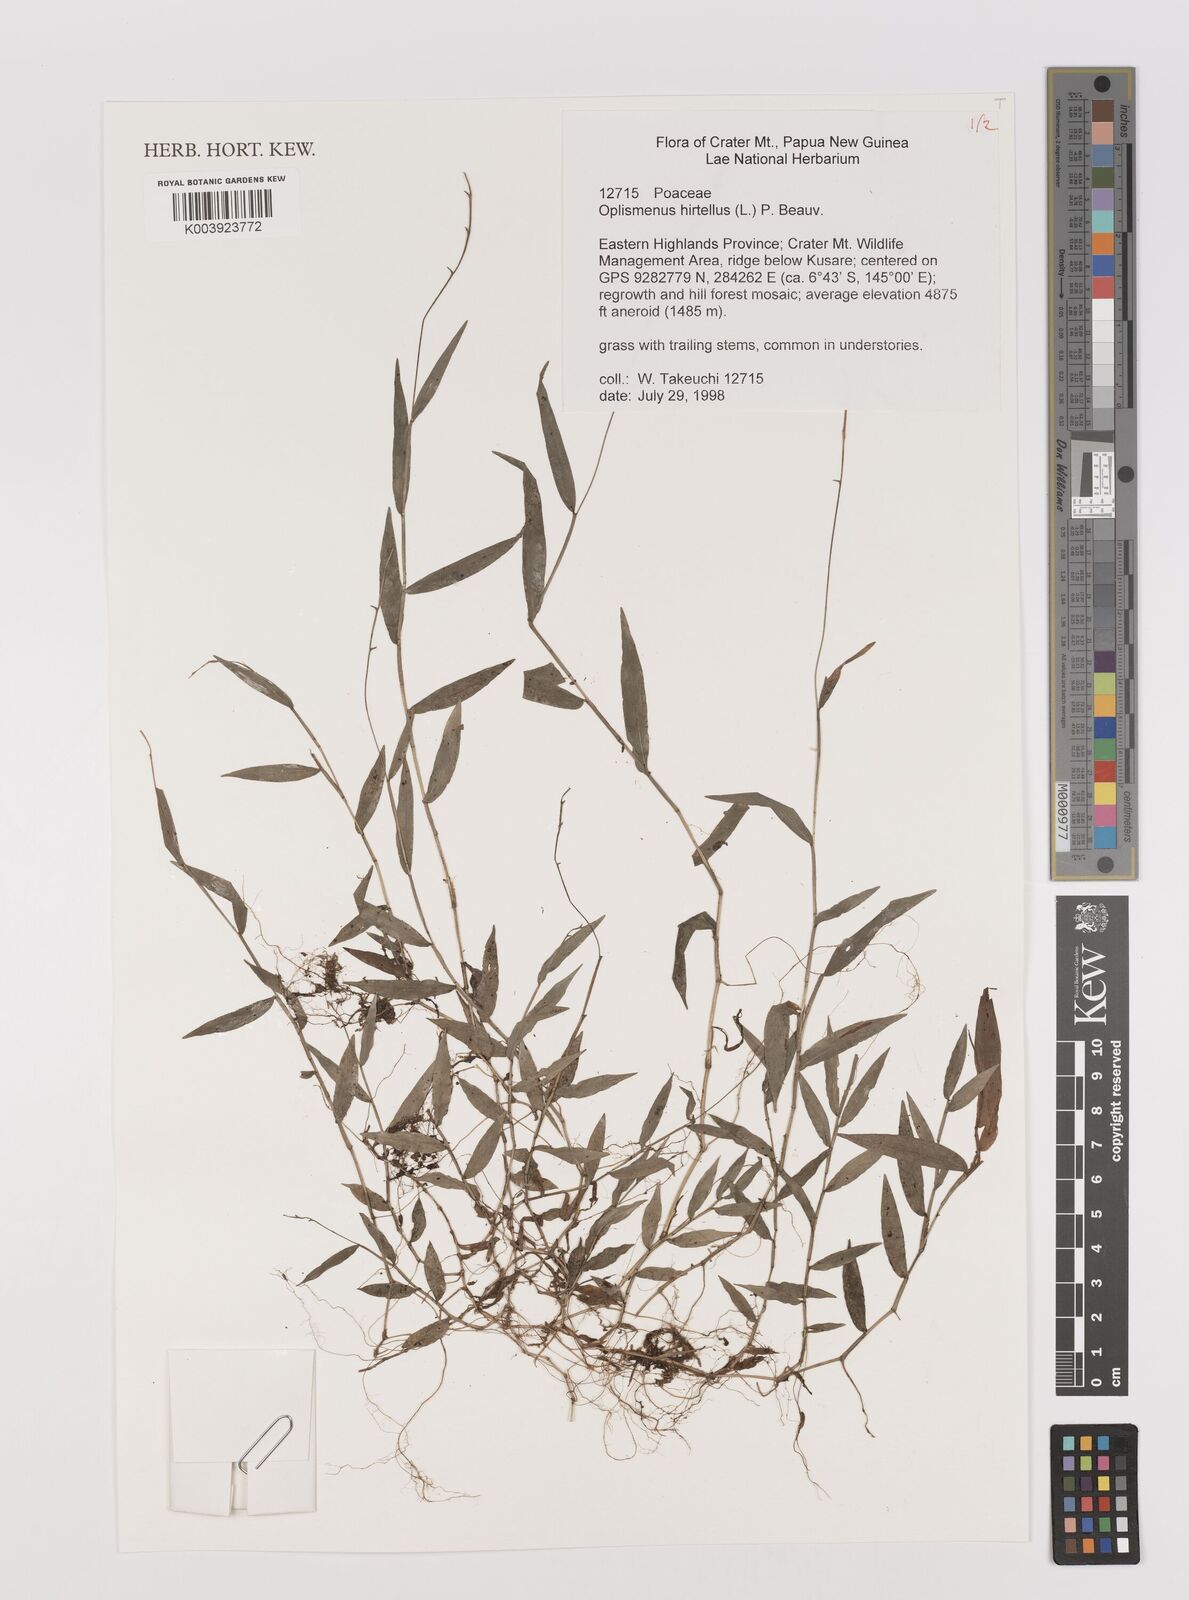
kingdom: Plantae
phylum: Tracheophyta
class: Liliopsida
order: Poales
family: Poaceae
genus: Oplismenus
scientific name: Oplismenus hirtellus
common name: Basketgrass
